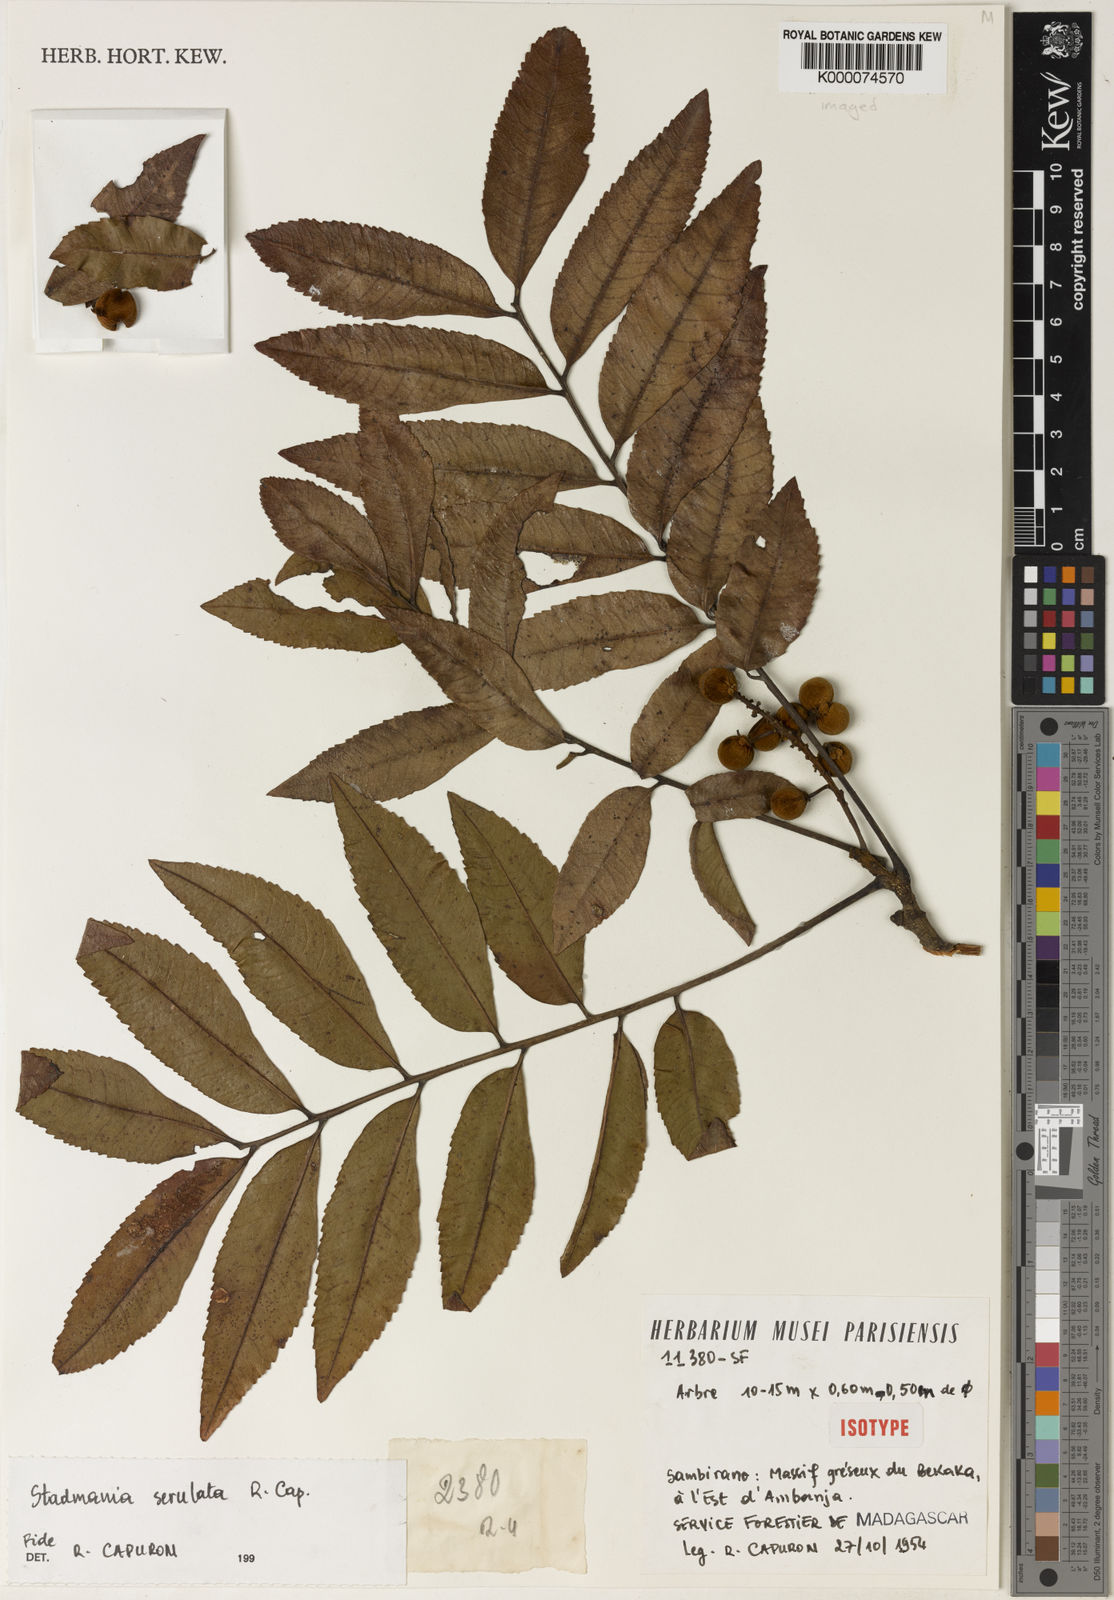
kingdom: Plantae
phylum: Tracheophyta
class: Magnoliopsida
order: Sapindales
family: Sapindaceae
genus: Stadtmannia
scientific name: Stadtmannia serrulata
